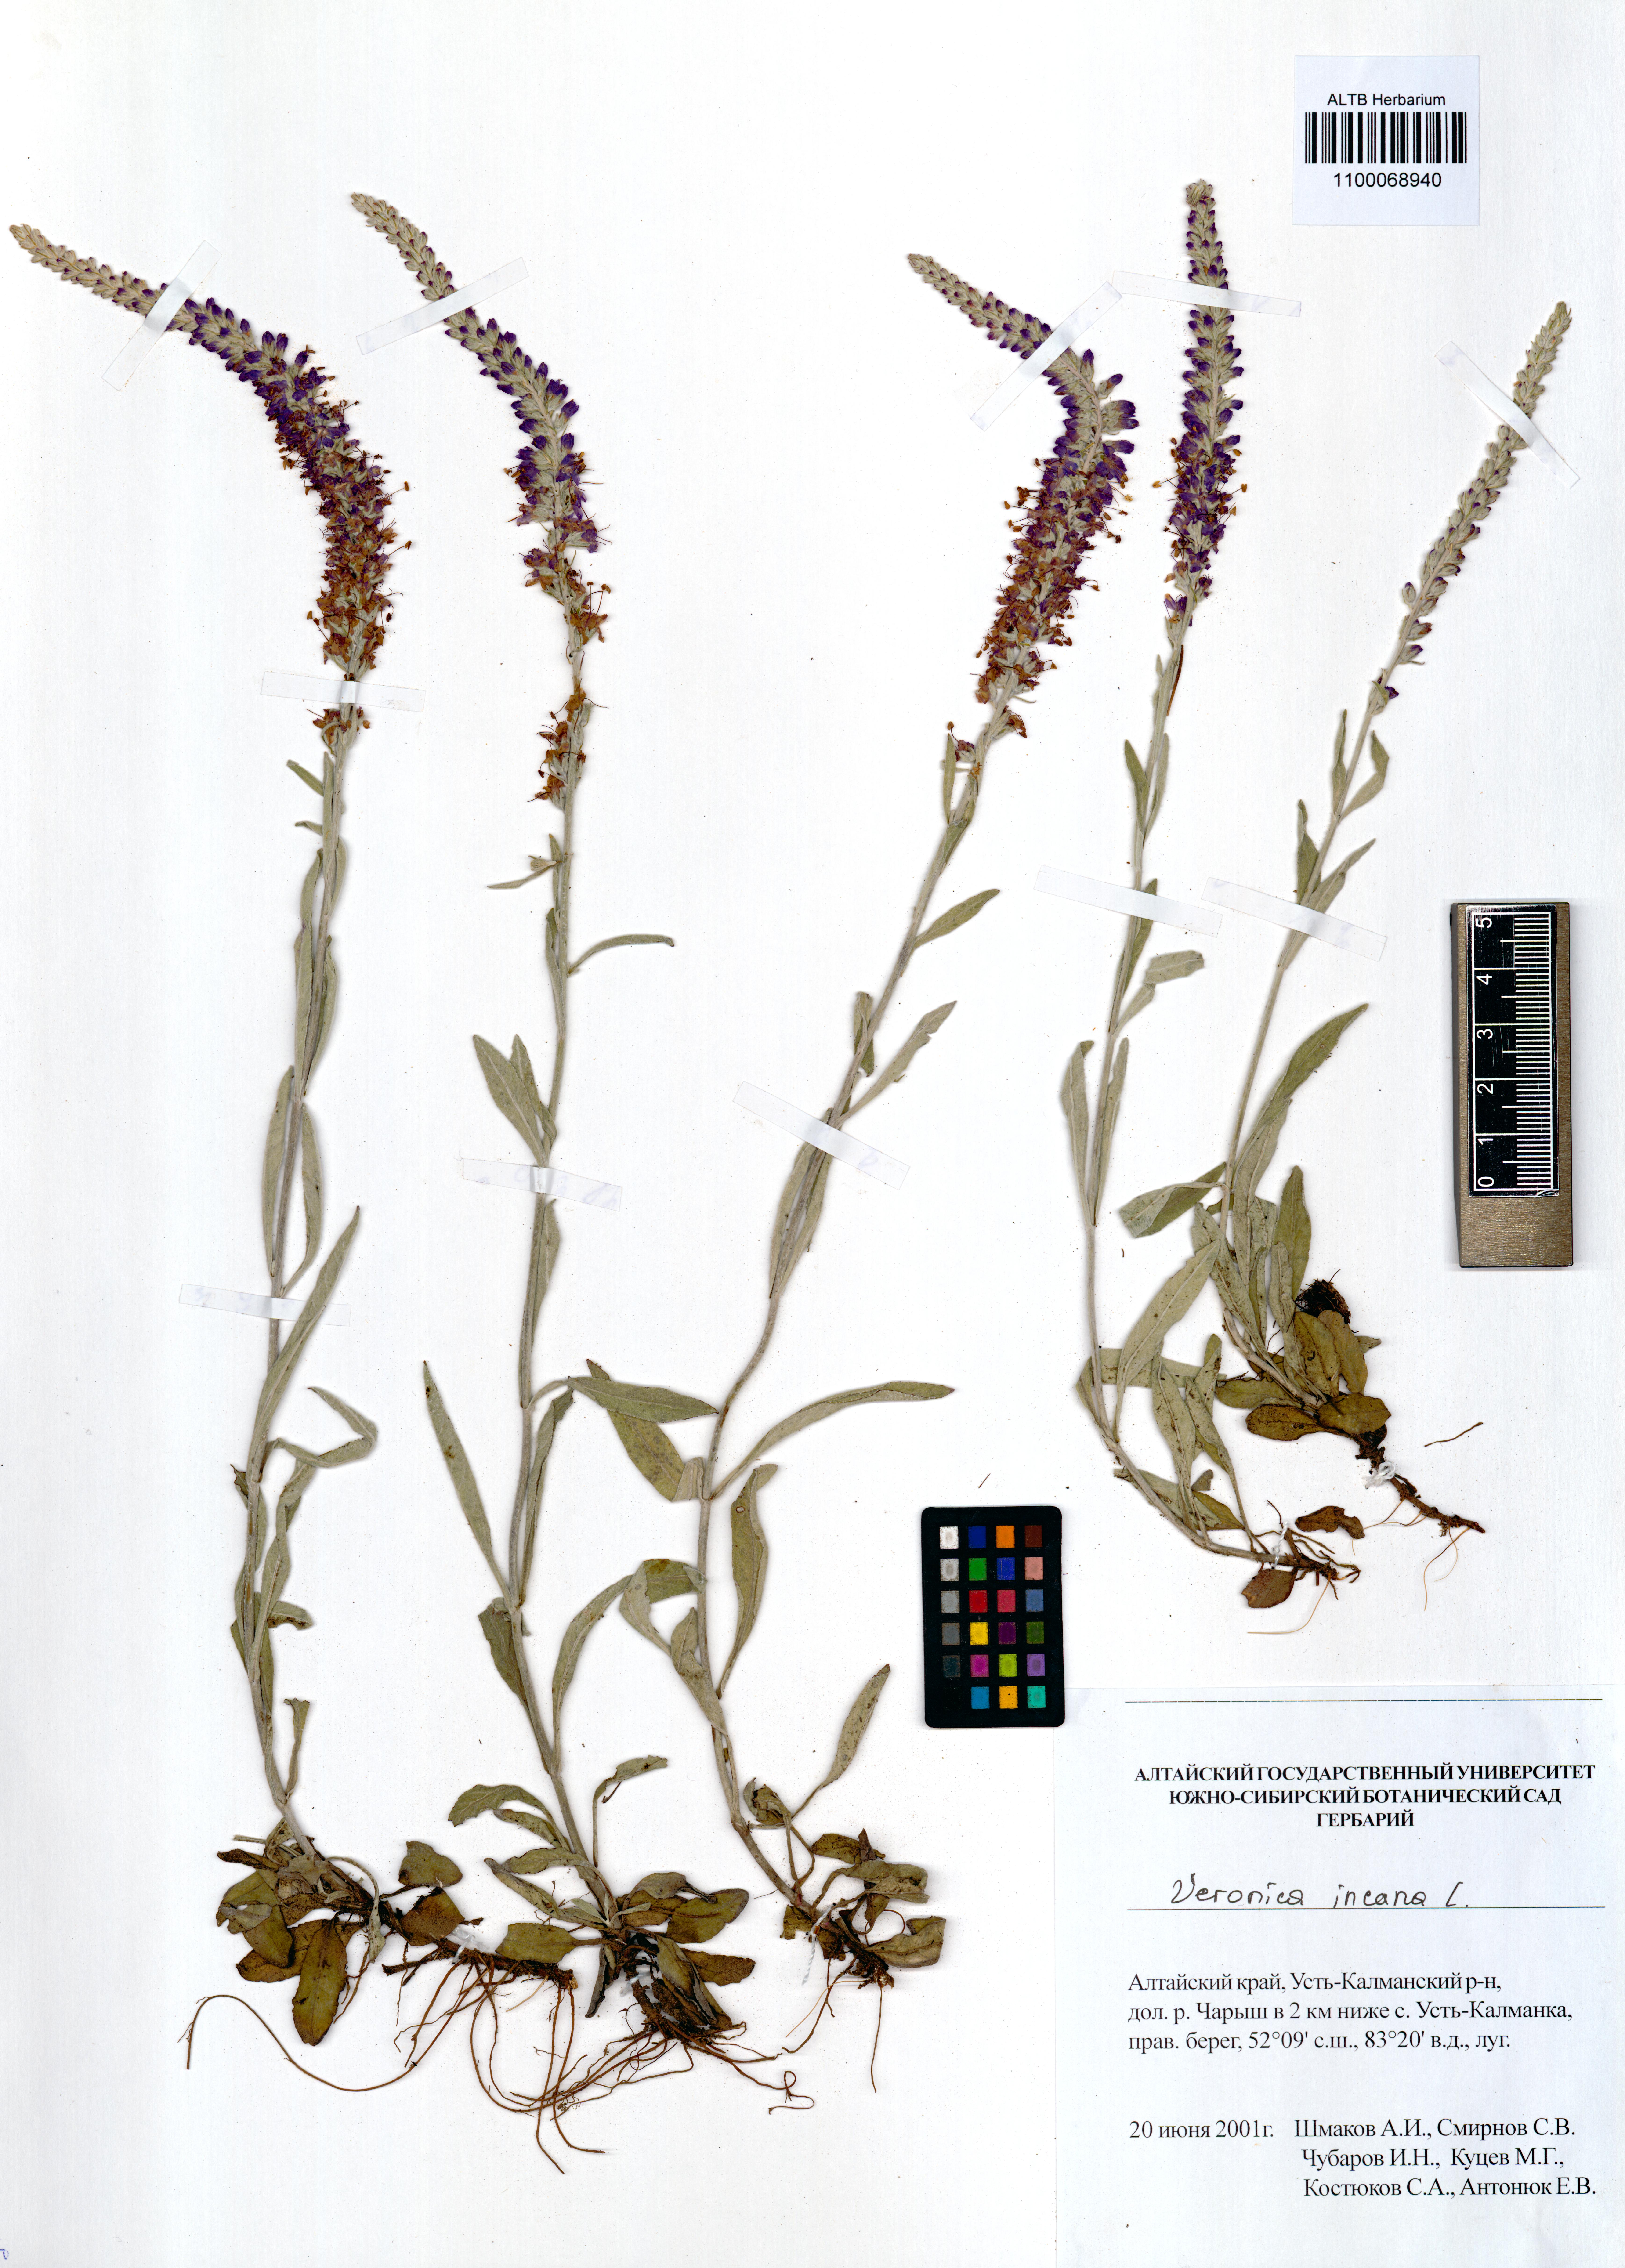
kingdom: Plantae
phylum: Tracheophyta
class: Magnoliopsida
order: Lamiales
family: Plantaginaceae
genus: Veronica
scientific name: Veronica incana
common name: Silver speedwell
